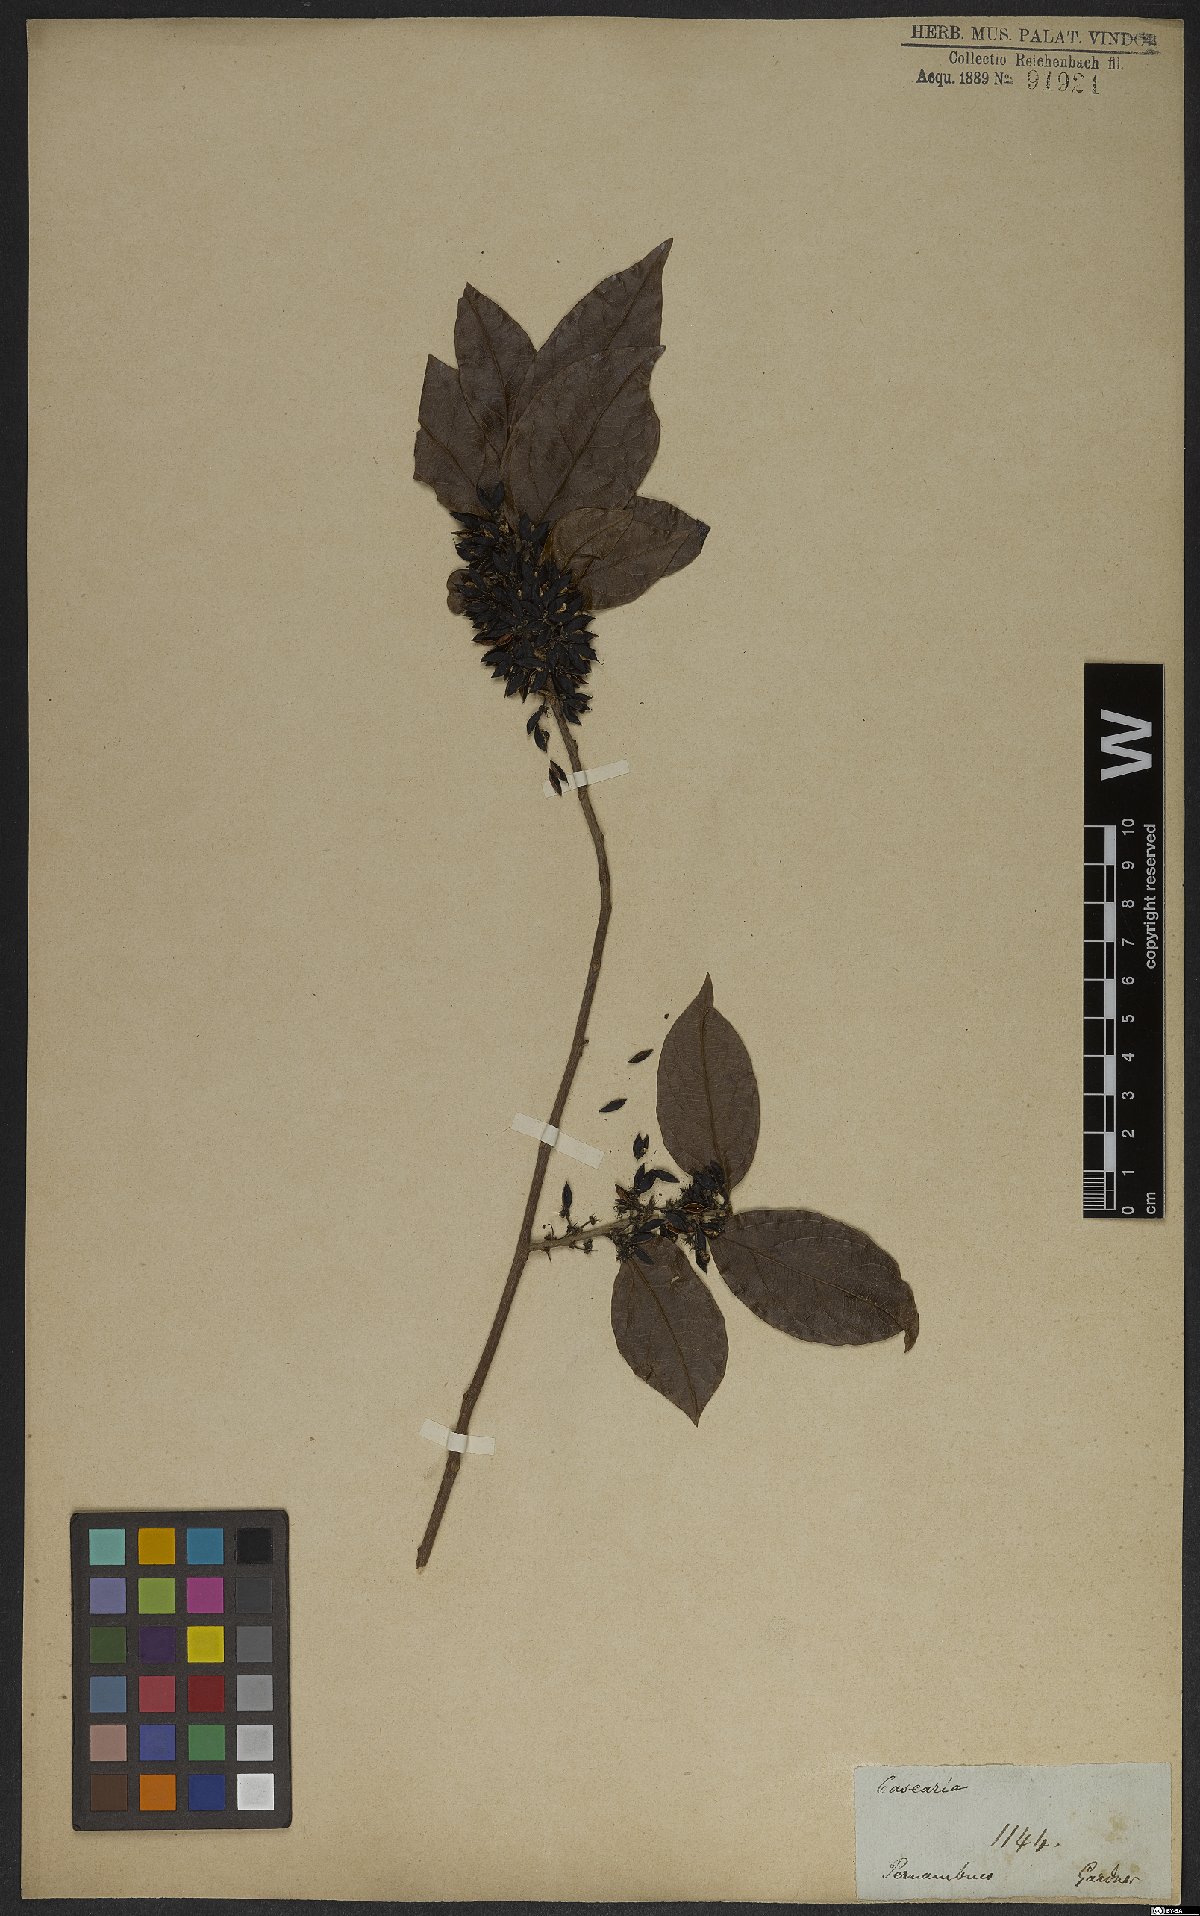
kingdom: Plantae
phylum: Tracheophyta
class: Magnoliopsida
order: Malpighiales
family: Salicaceae
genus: Piparea
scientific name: Piparea dentata
